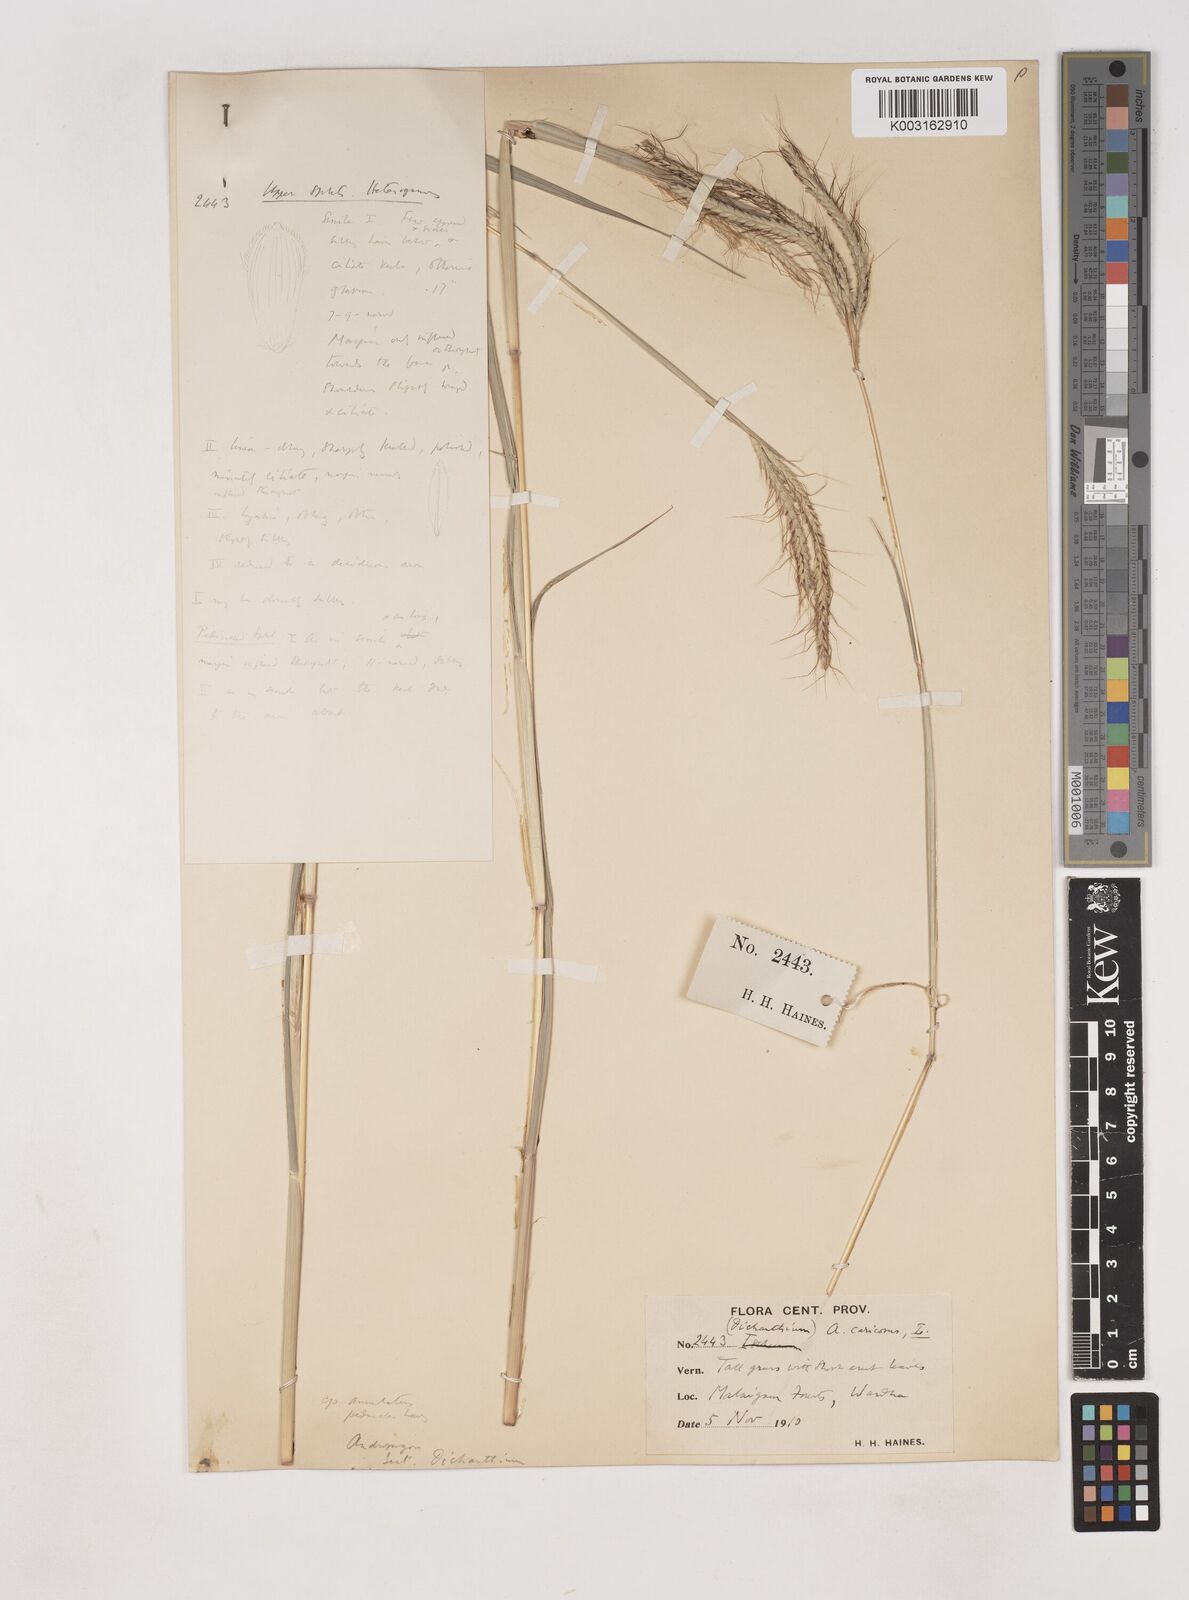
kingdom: Plantae
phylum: Tracheophyta
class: Liliopsida
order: Poales
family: Poaceae
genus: Dichanthium
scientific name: Dichanthium aristatum
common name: Angleton bluestem
